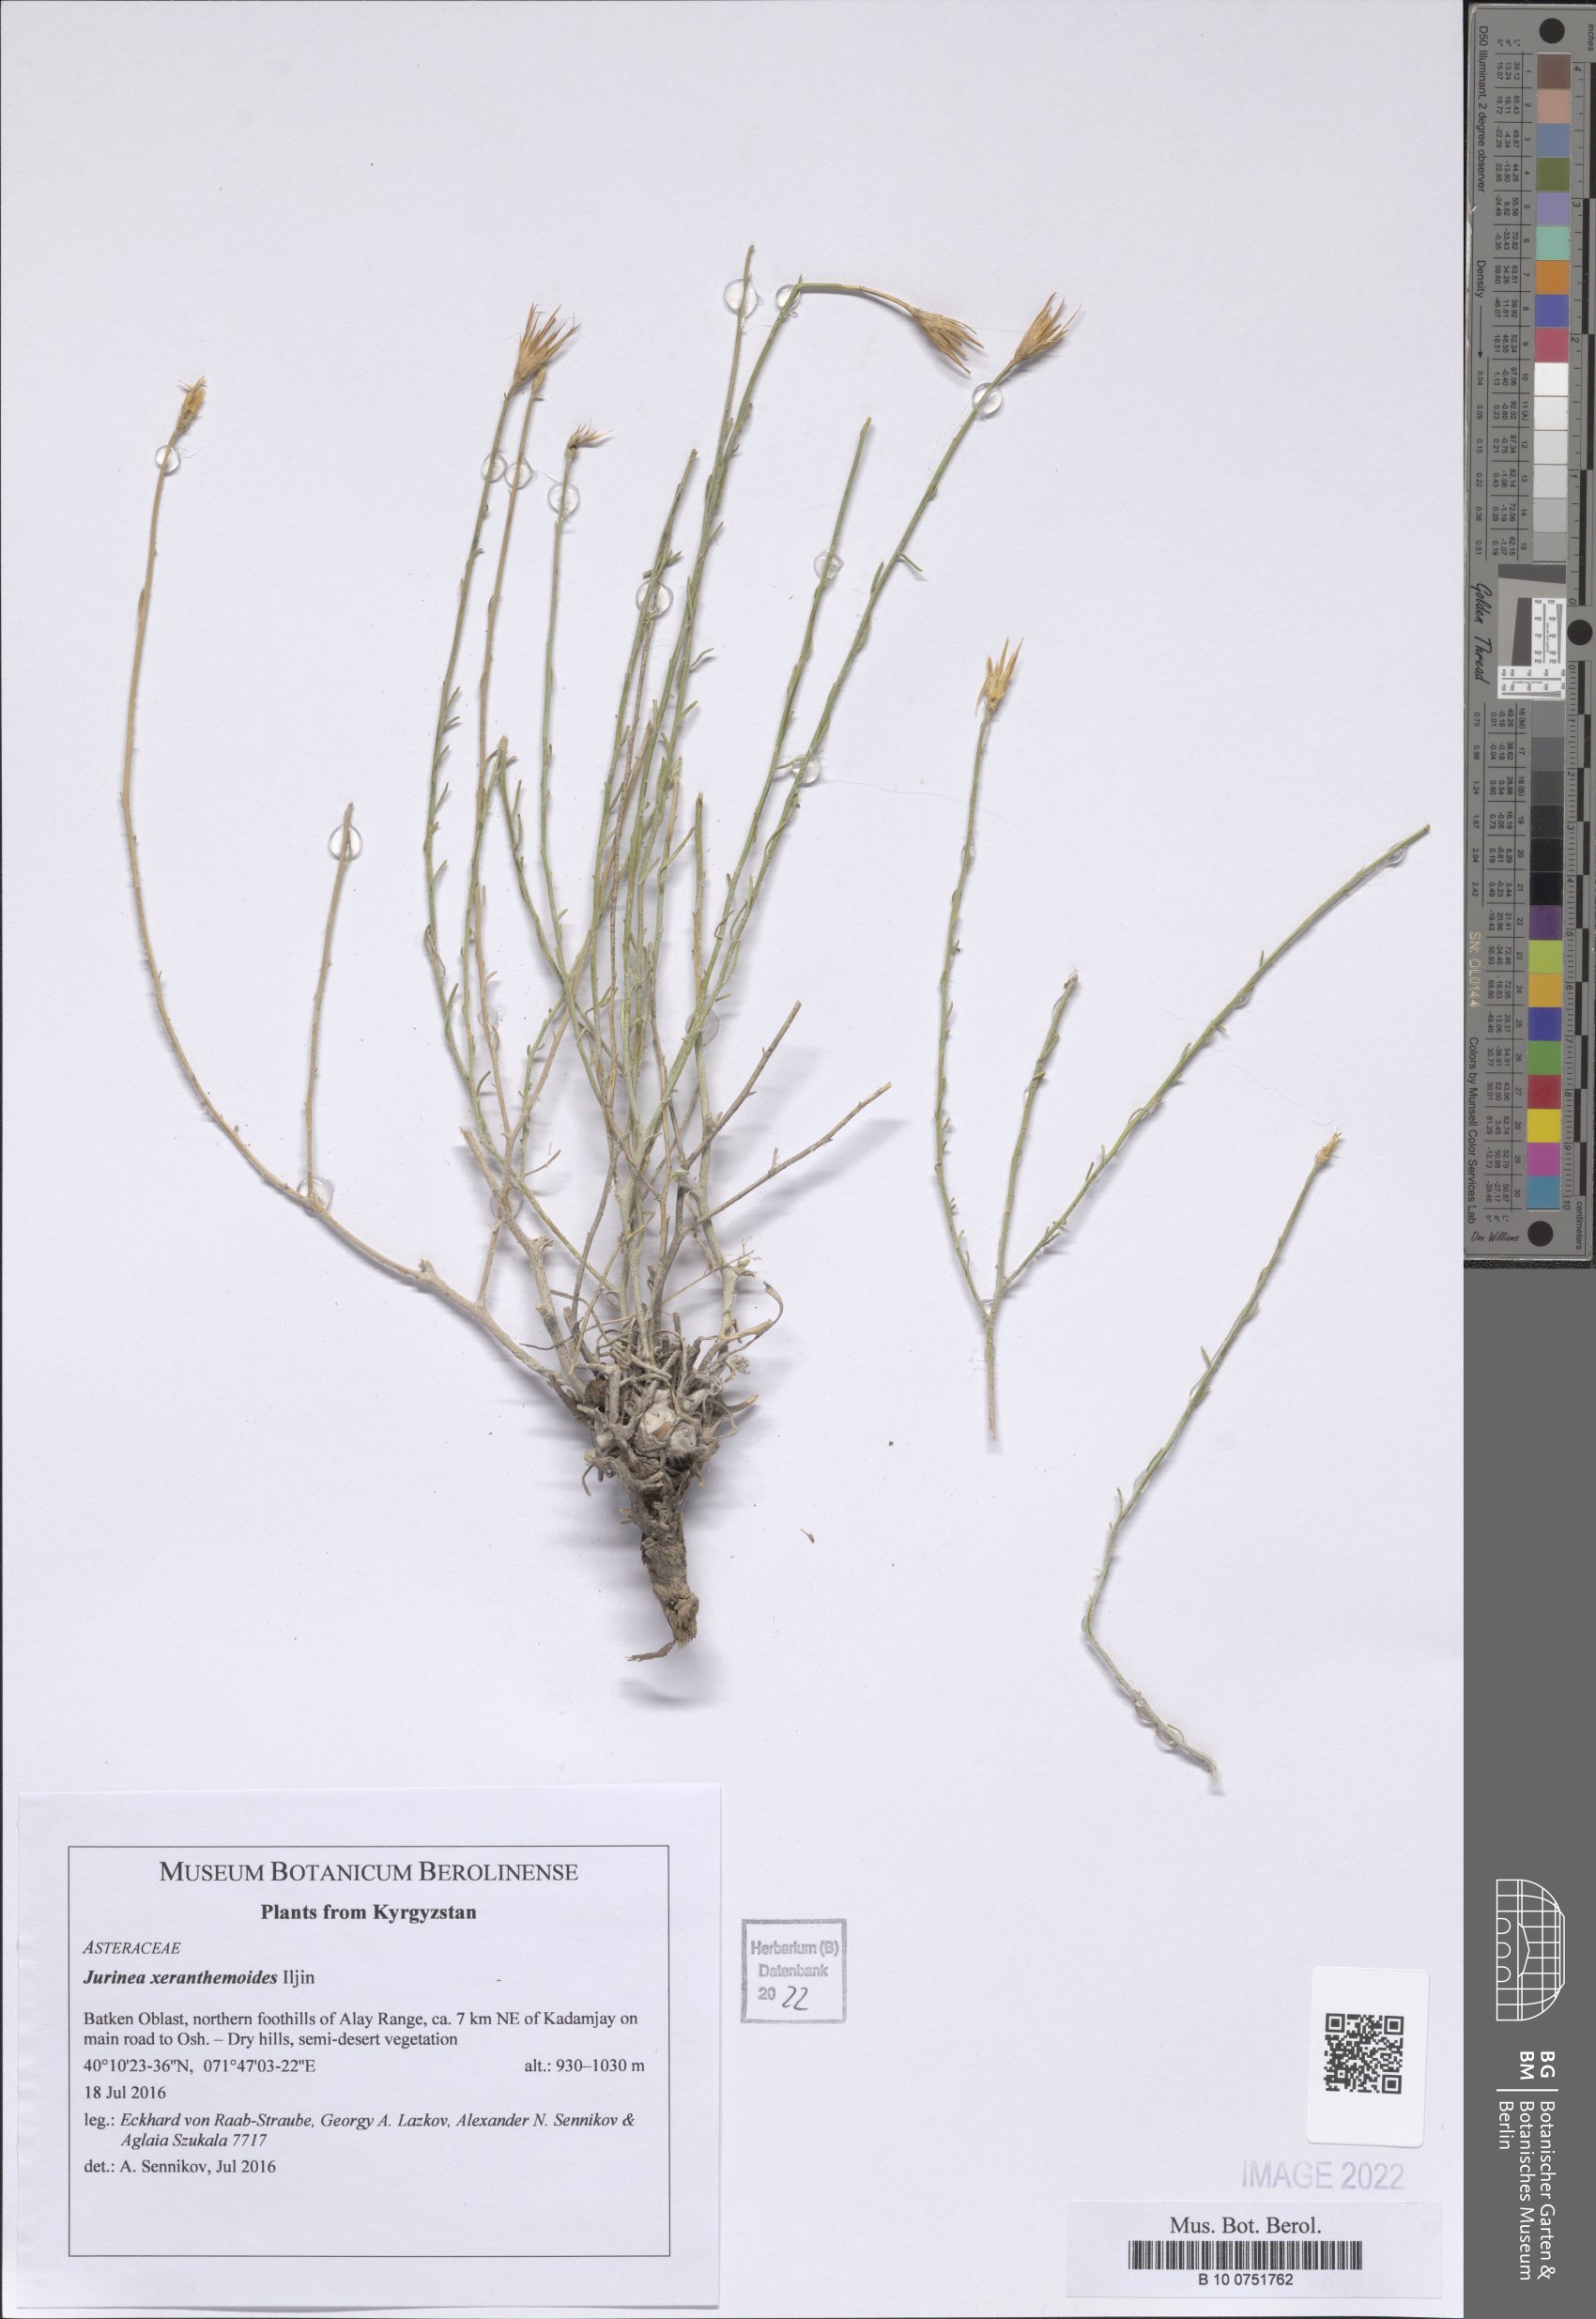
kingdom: Plantae
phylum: Tracheophyta
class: Magnoliopsida
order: Asterales
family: Asteraceae
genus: Jurinea
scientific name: Jurinea xeranthemoides
